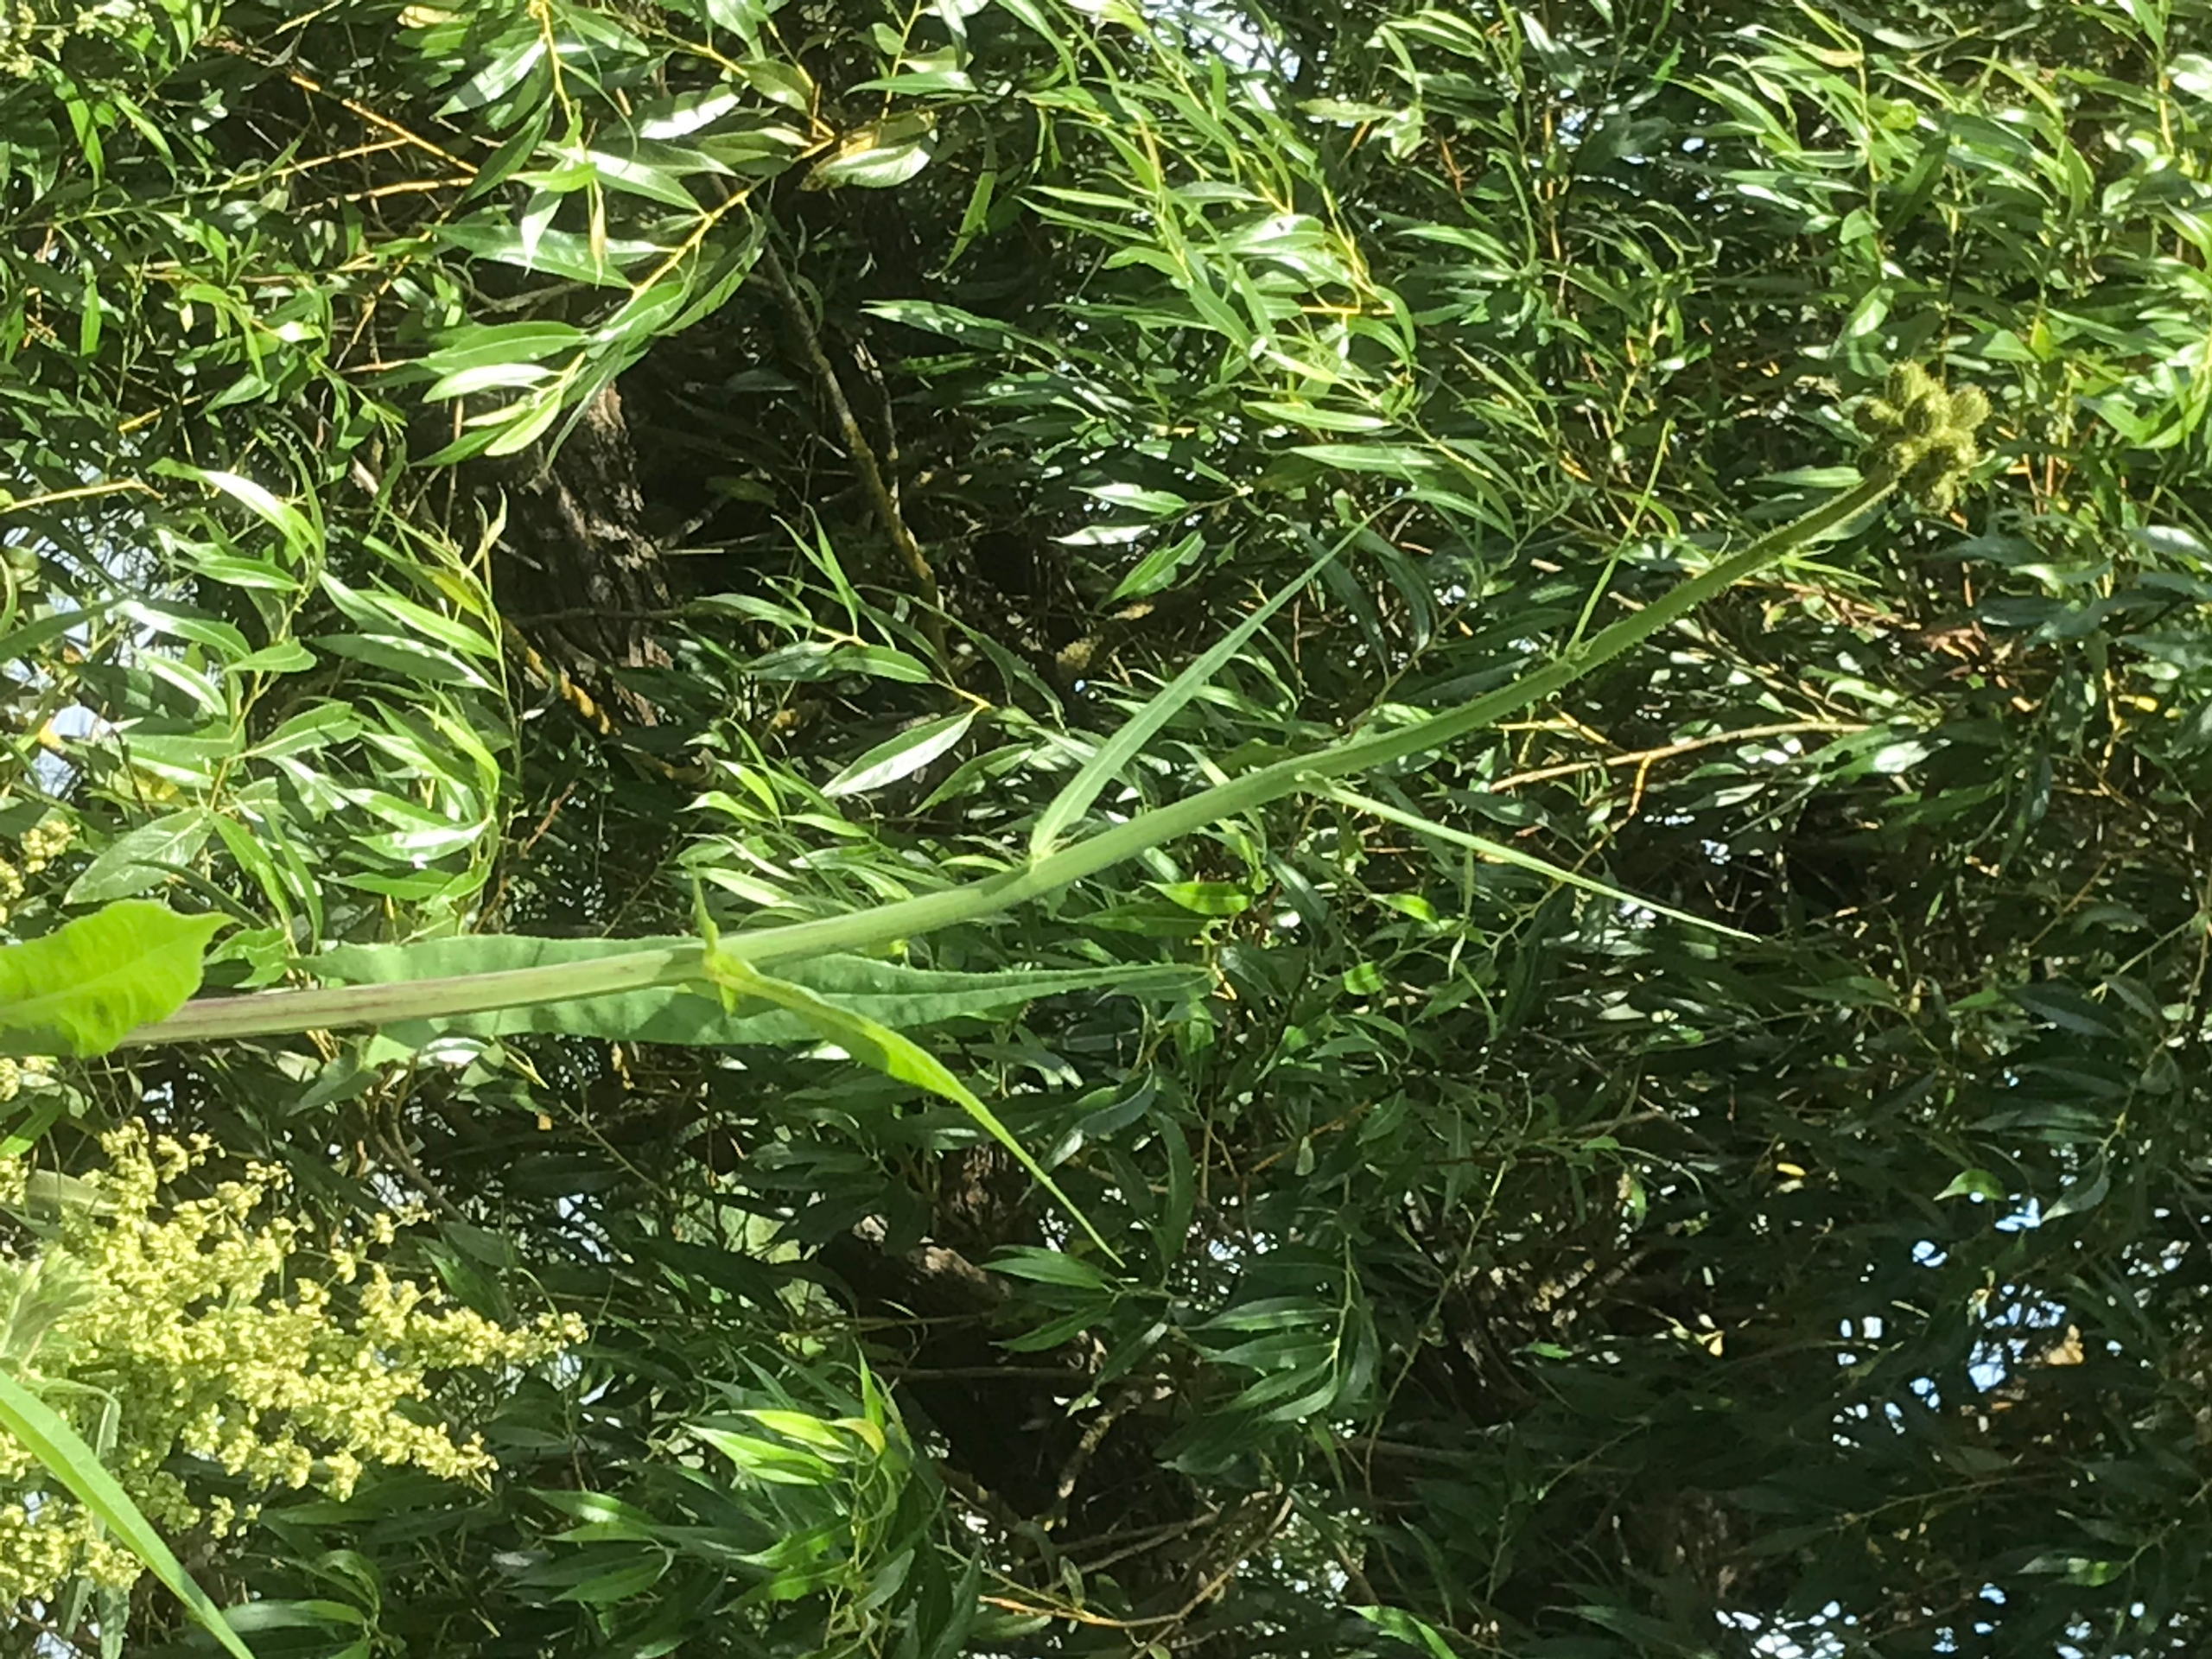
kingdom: Plantae
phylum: Tracheophyta
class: Magnoliopsida
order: Asterales
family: Asteraceae
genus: Sonchus
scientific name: Sonchus palustris
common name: Kær-svinemælk
